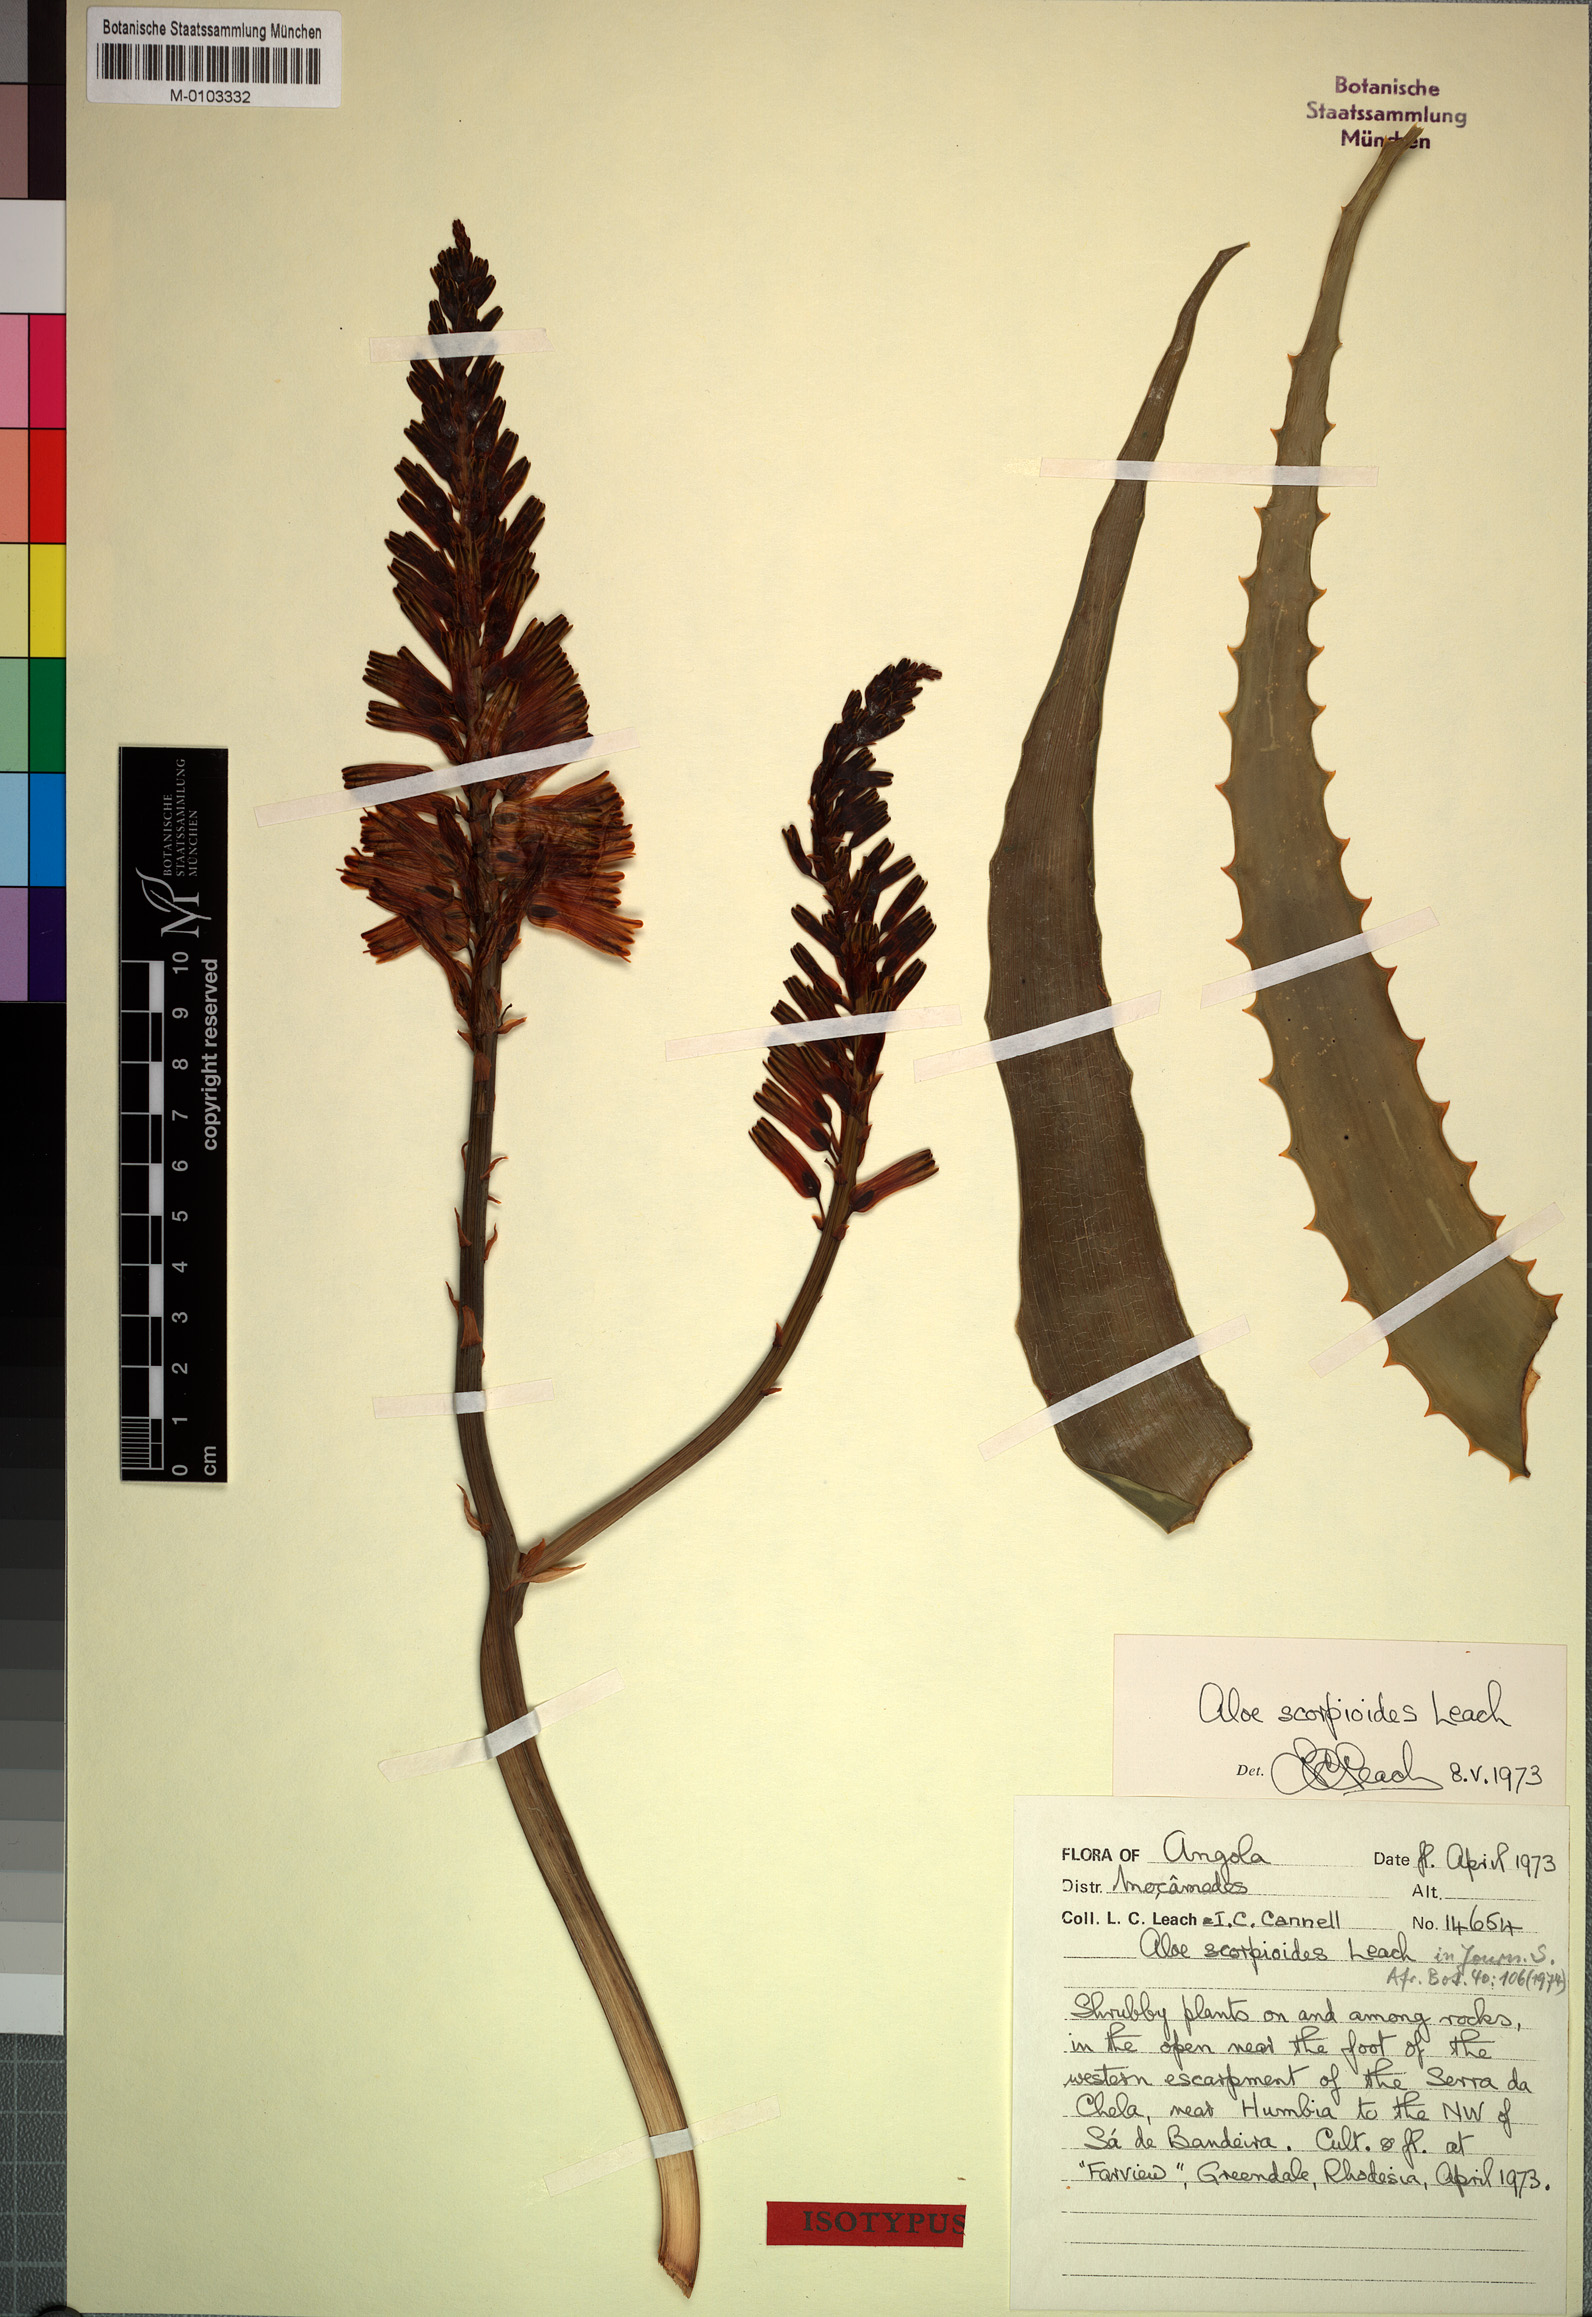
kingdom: Plantae
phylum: Tracheophyta
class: Liliopsida
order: Asparagales
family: Asphodelaceae
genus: Aloe
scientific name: Aloe scorpioides
